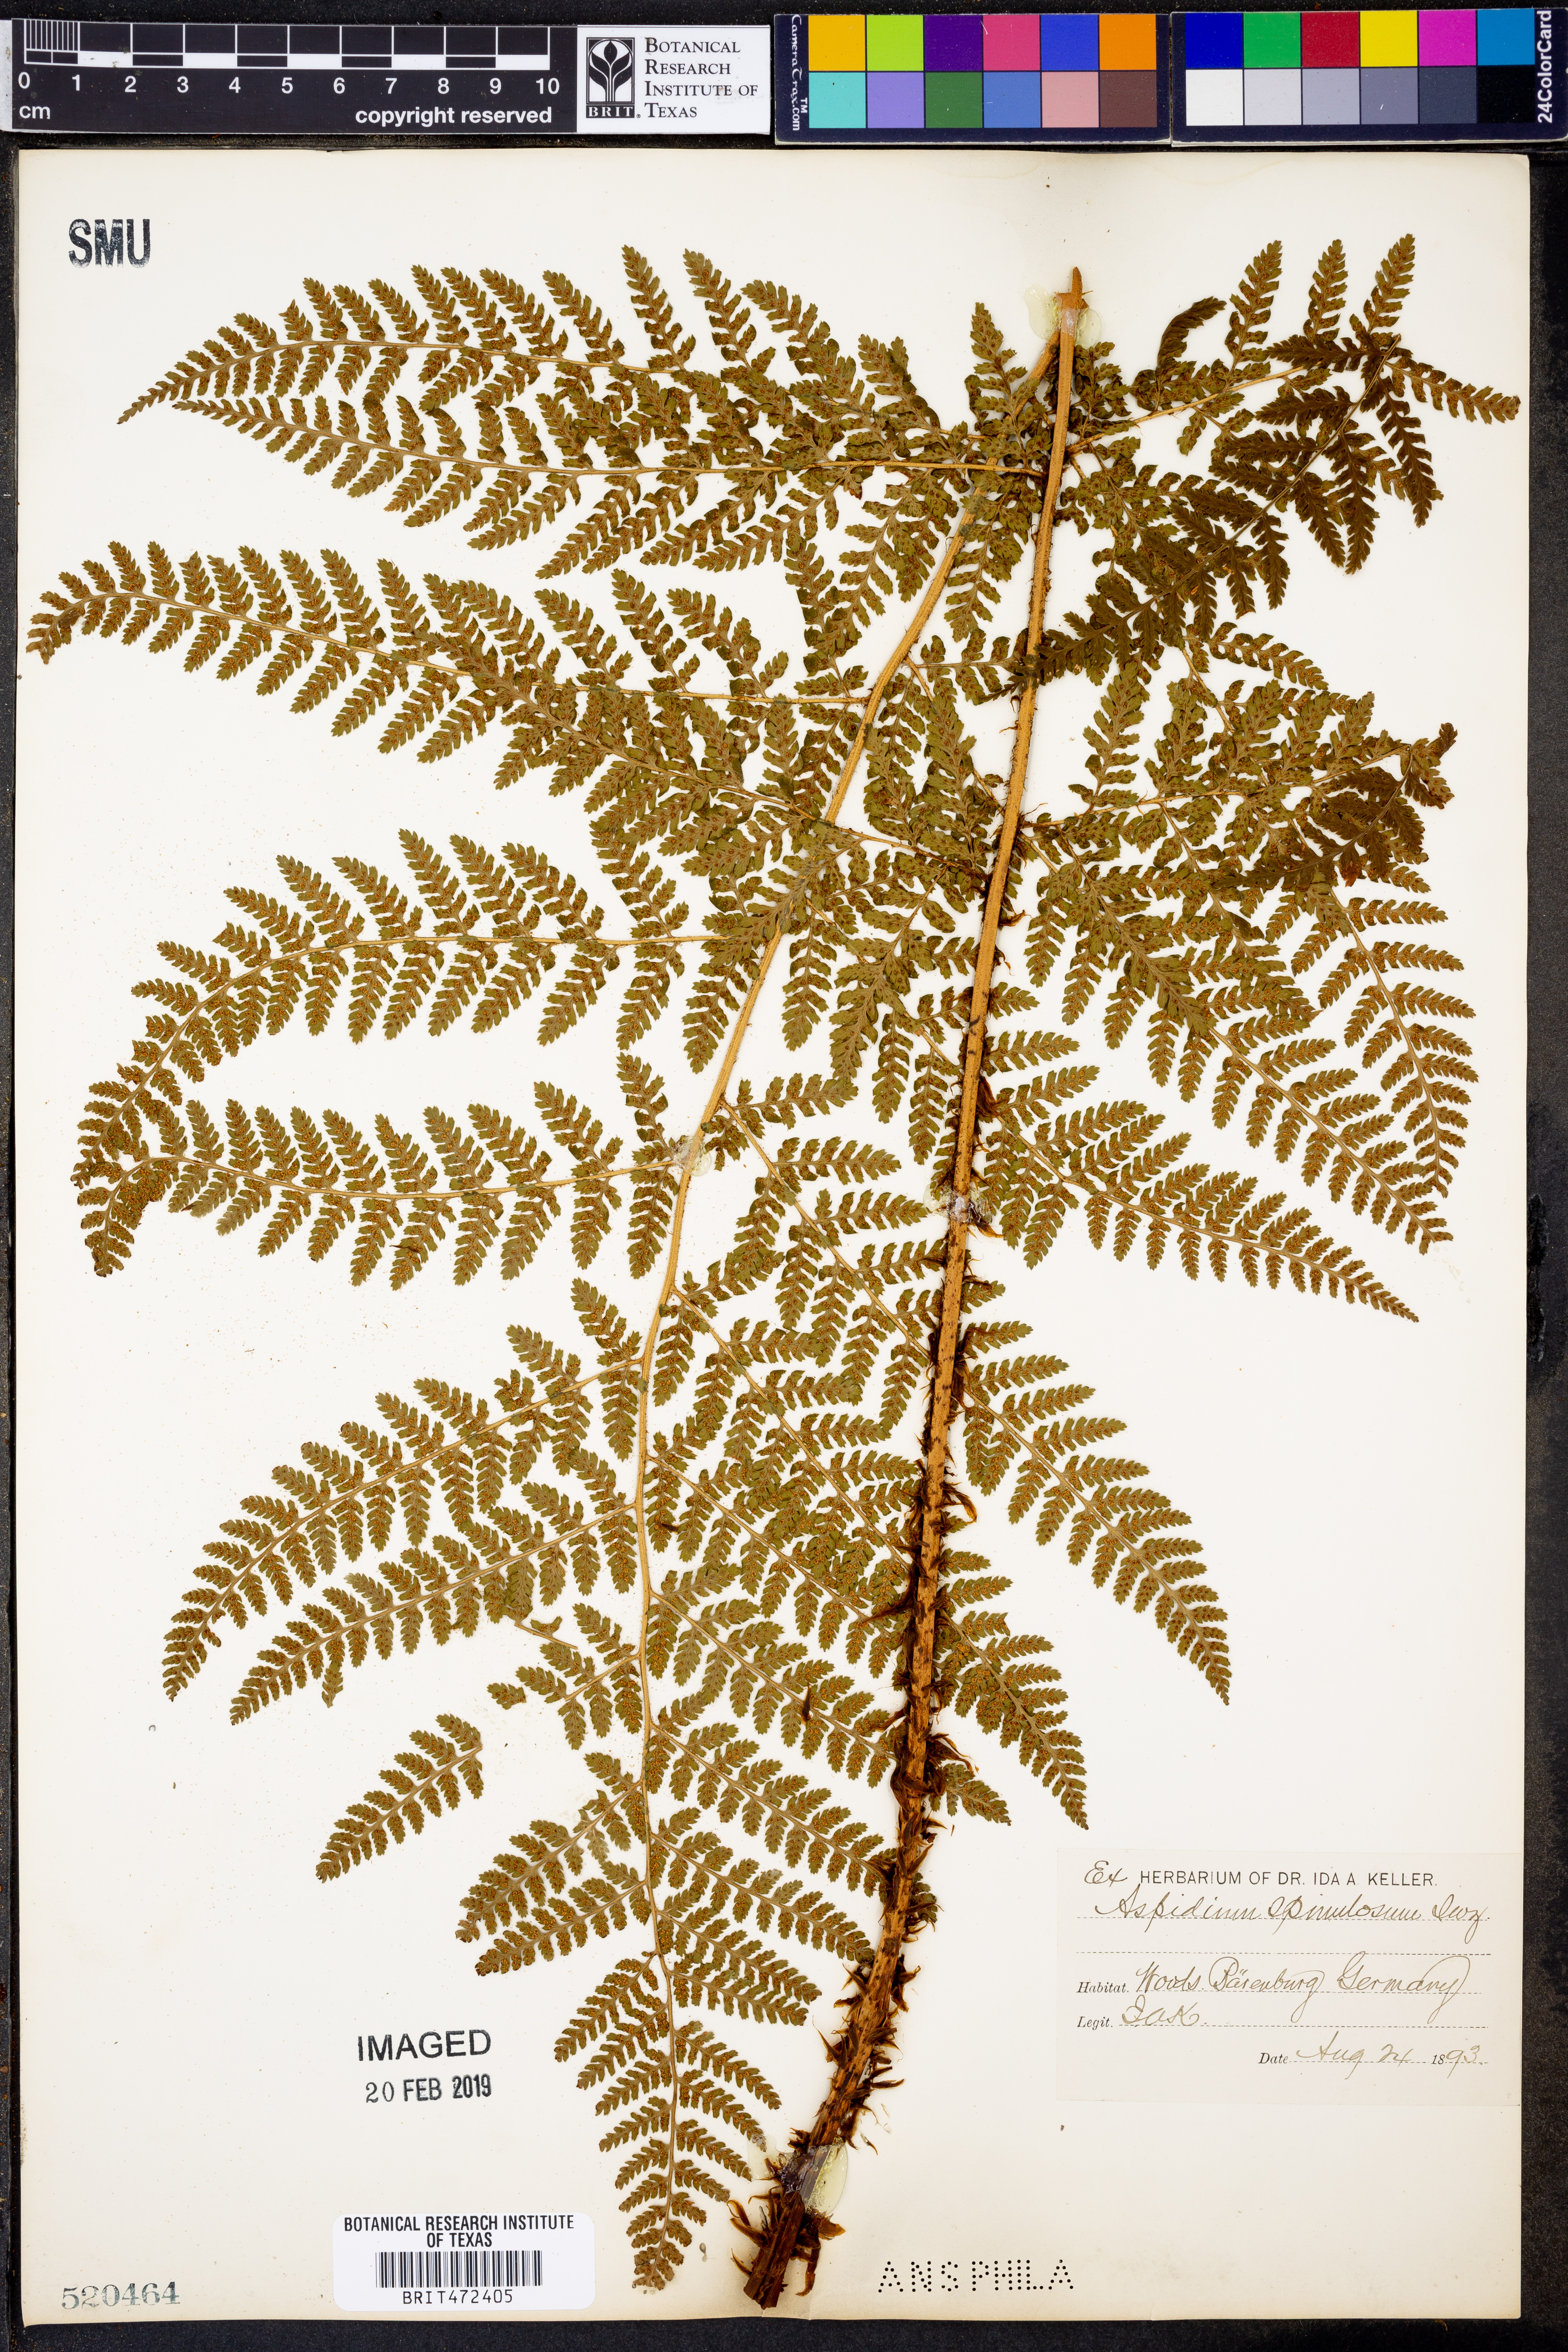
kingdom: Plantae
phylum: Tracheophyta
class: Polypodiopsida
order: Polypodiales
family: Dryopteridaceae
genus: Dryopteris
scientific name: Dryopteris
